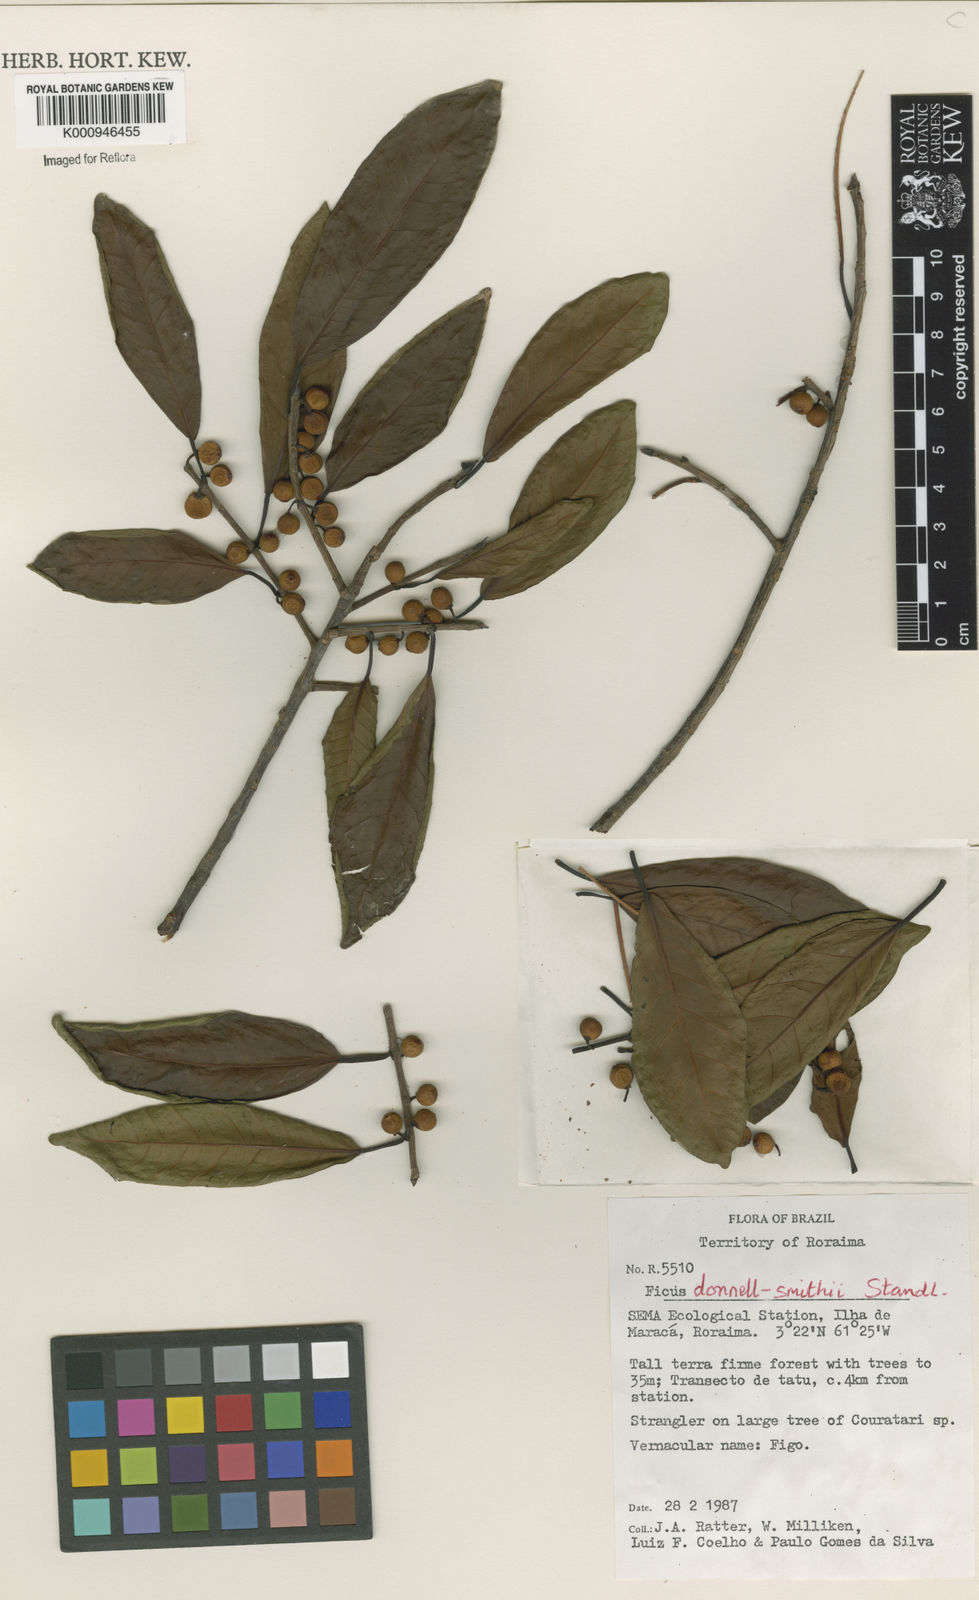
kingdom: Plantae
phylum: Tracheophyta
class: Magnoliopsida
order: Rosales
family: Moraceae
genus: Ficus
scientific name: Ficus donnell-smithii
